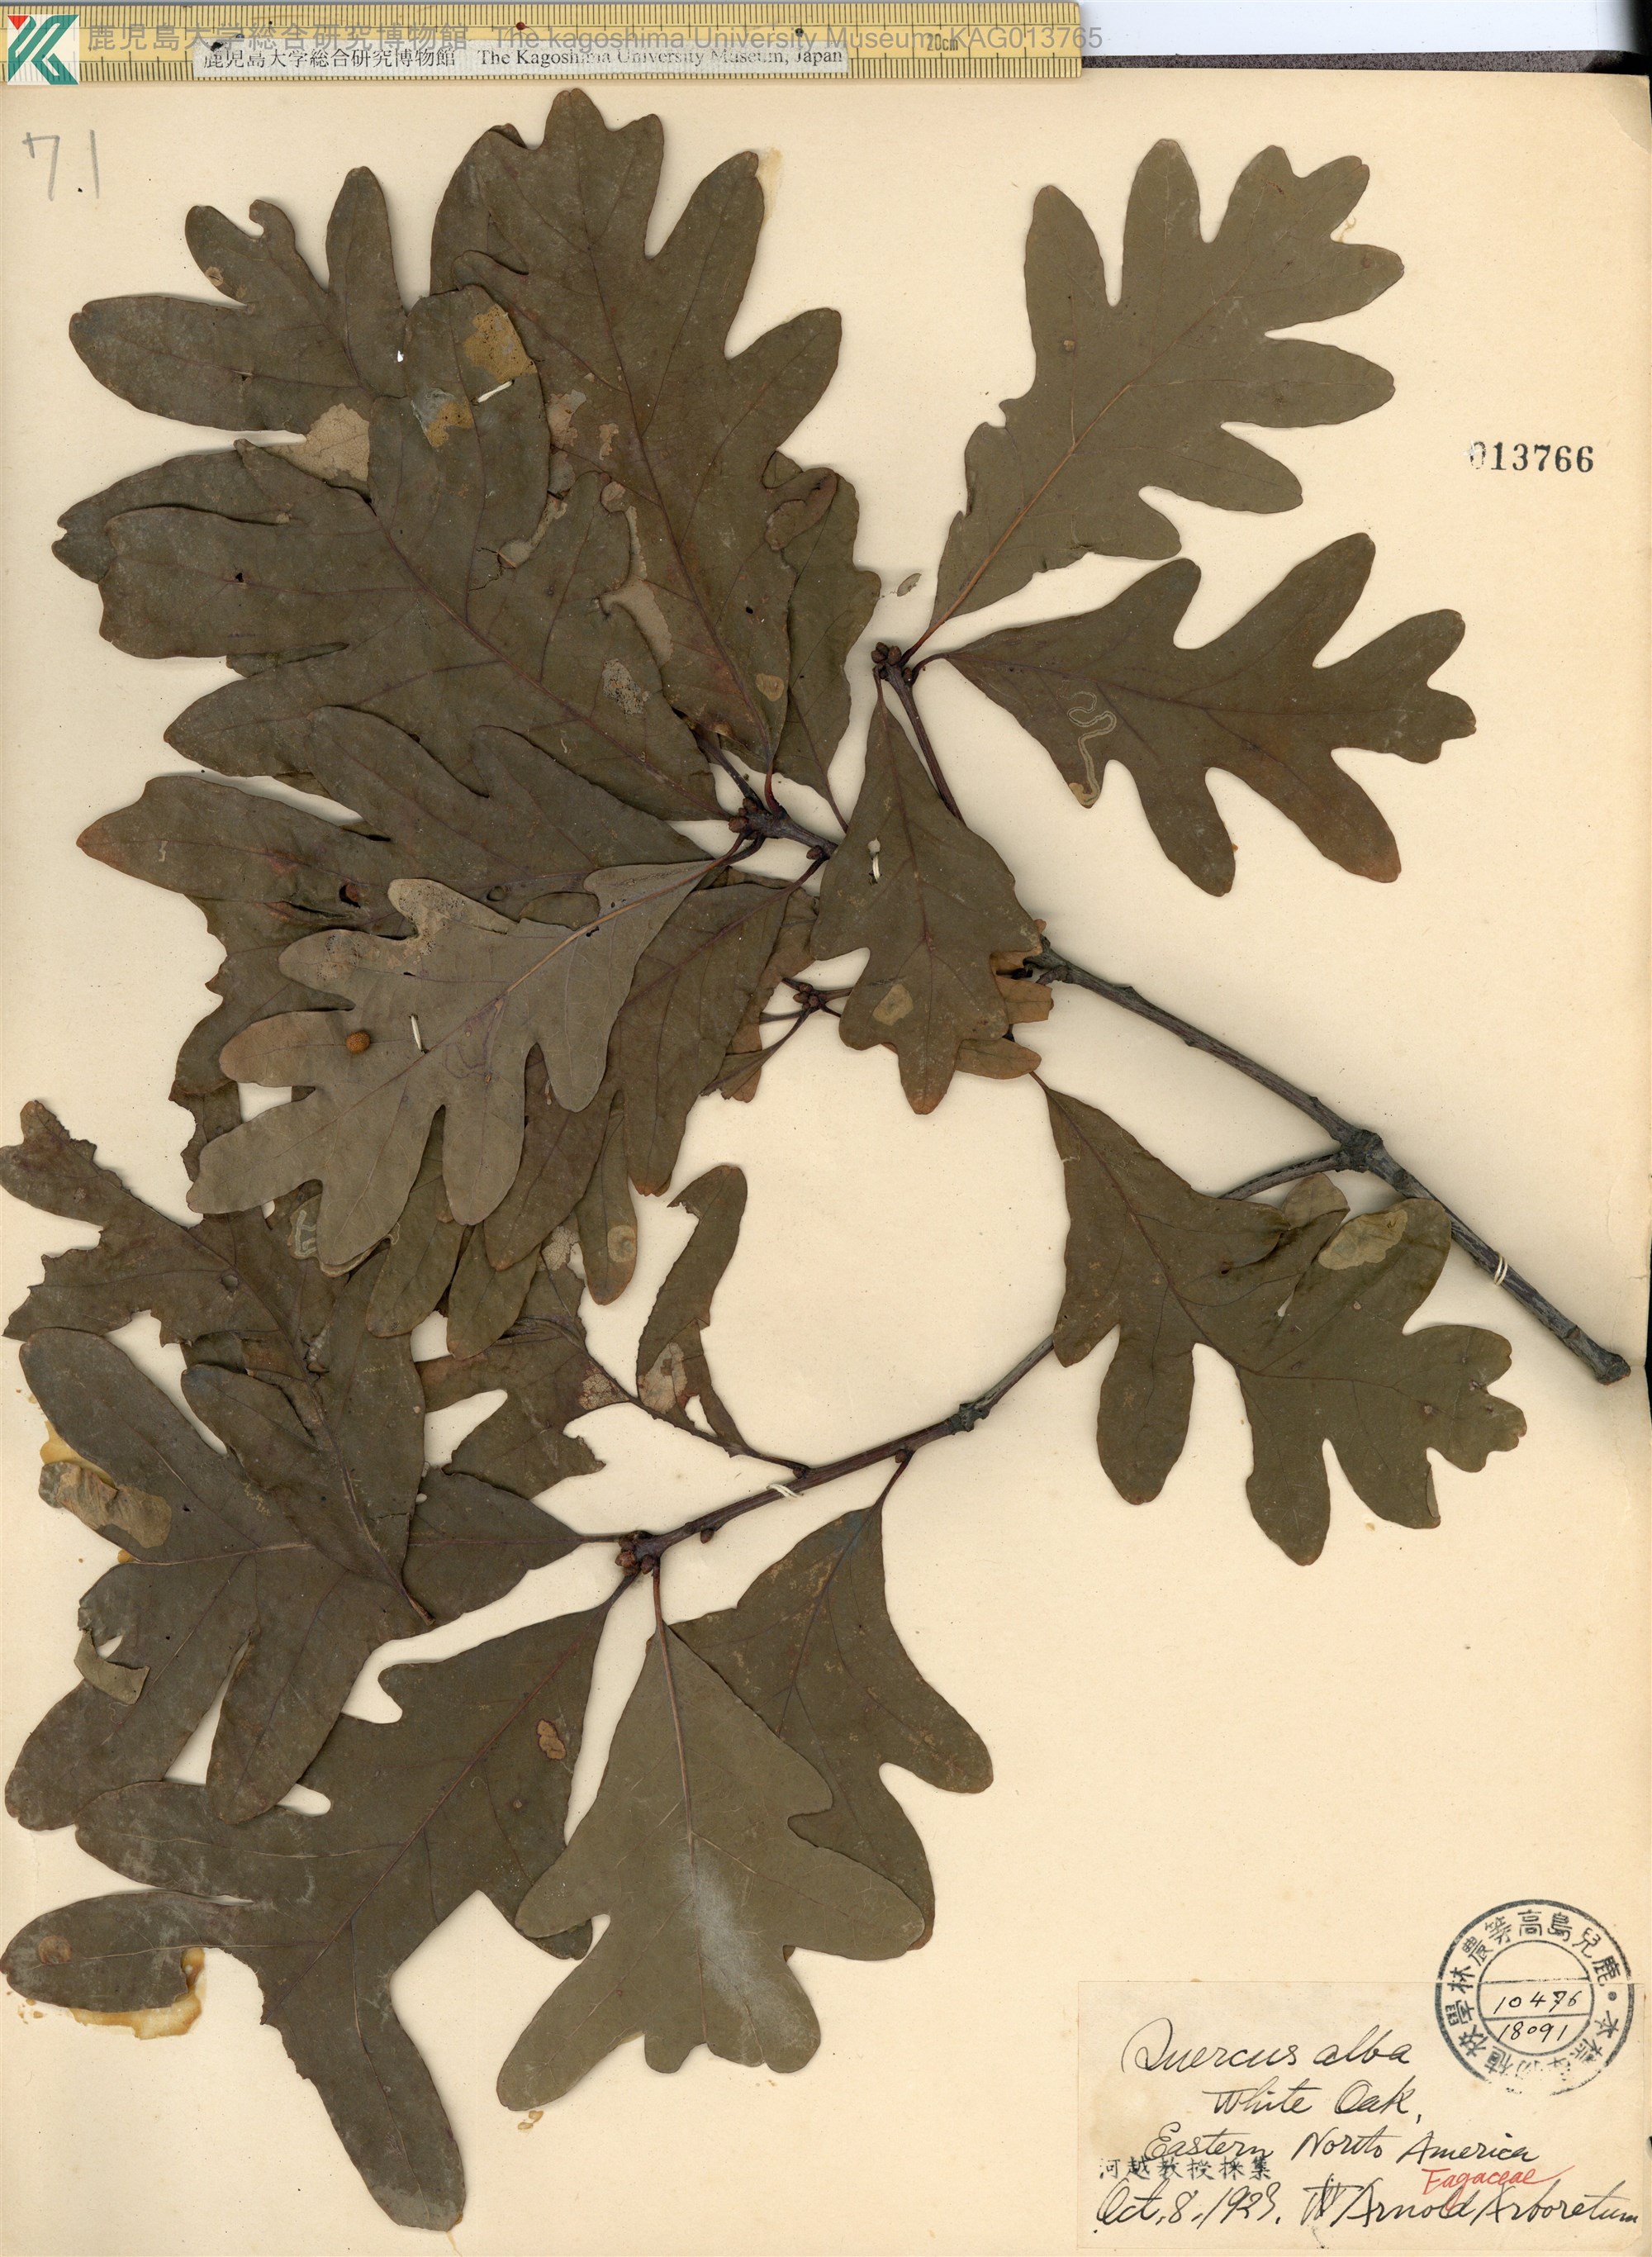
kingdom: Plantae
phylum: Tracheophyta
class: Magnoliopsida
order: Fagales
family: Fagaceae
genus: Quercus
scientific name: Quercus alba
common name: White oak
